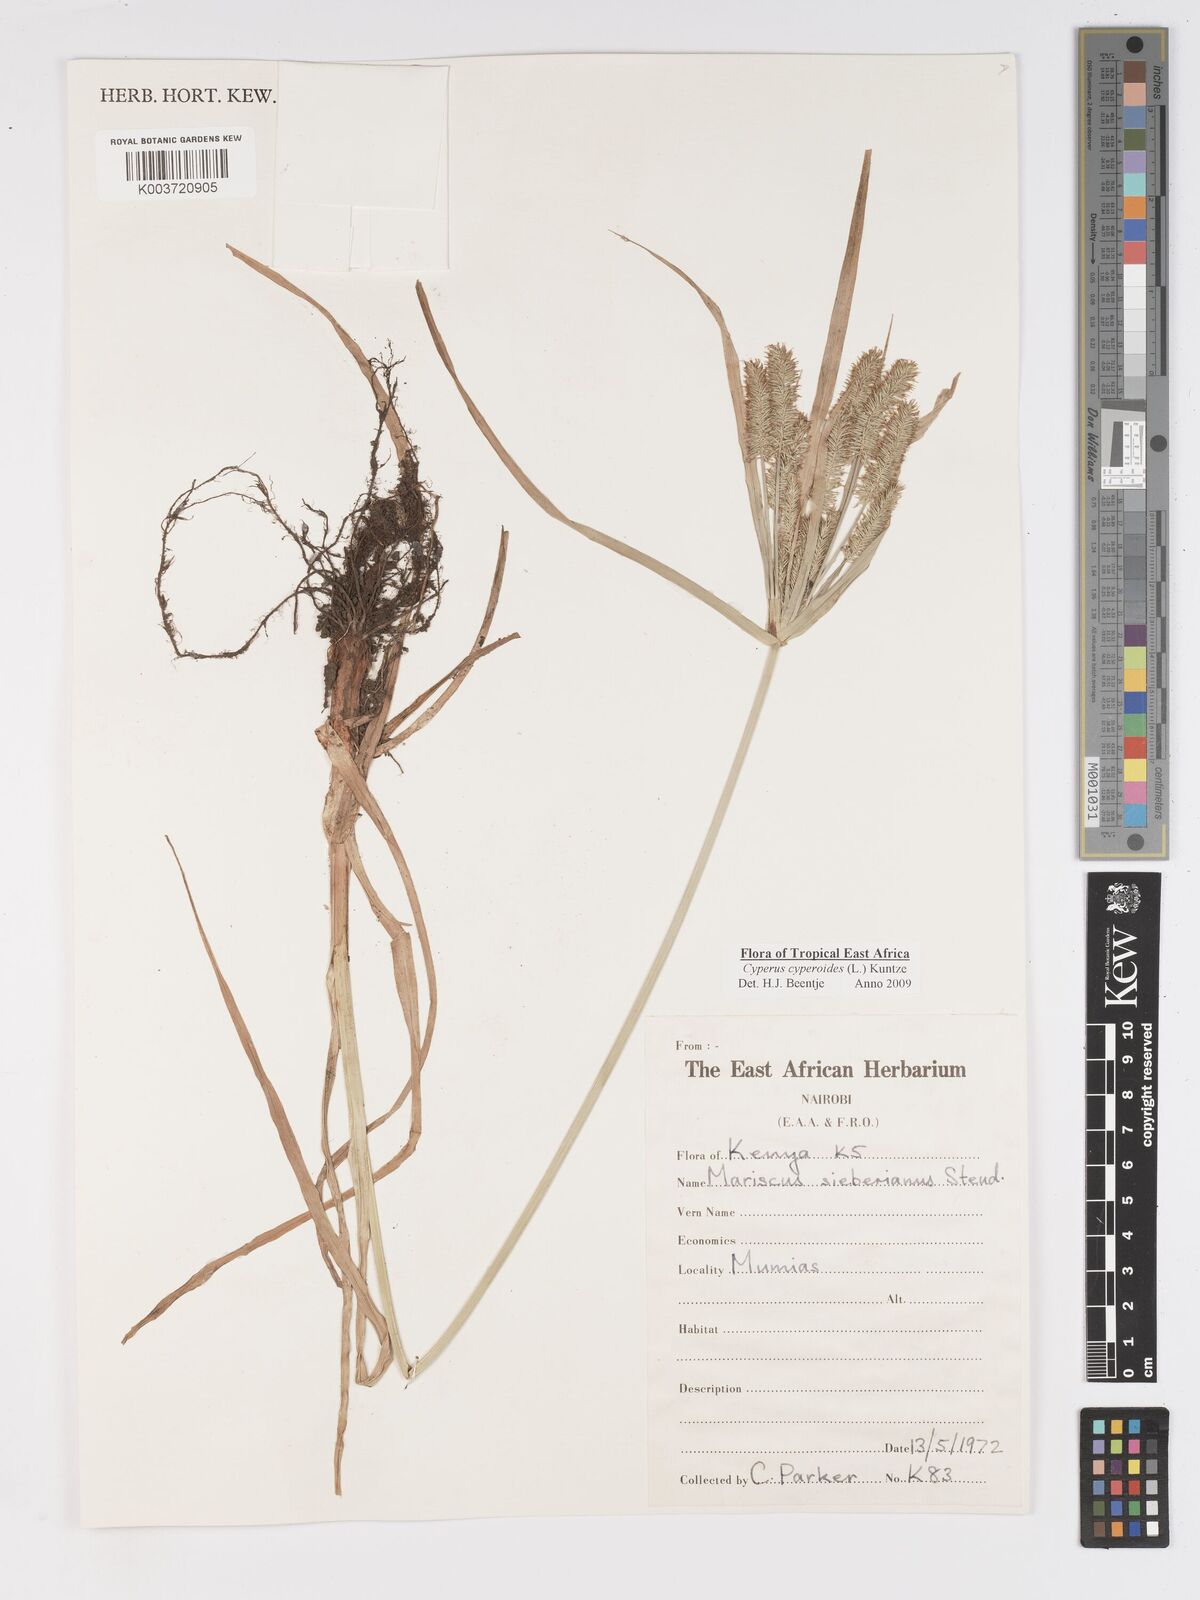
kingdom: Plantae
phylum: Tracheophyta
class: Liliopsida
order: Poales
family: Cyperaceae
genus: Cyperus
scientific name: Cyperus cyperoides
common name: Pacific island flat sedge
